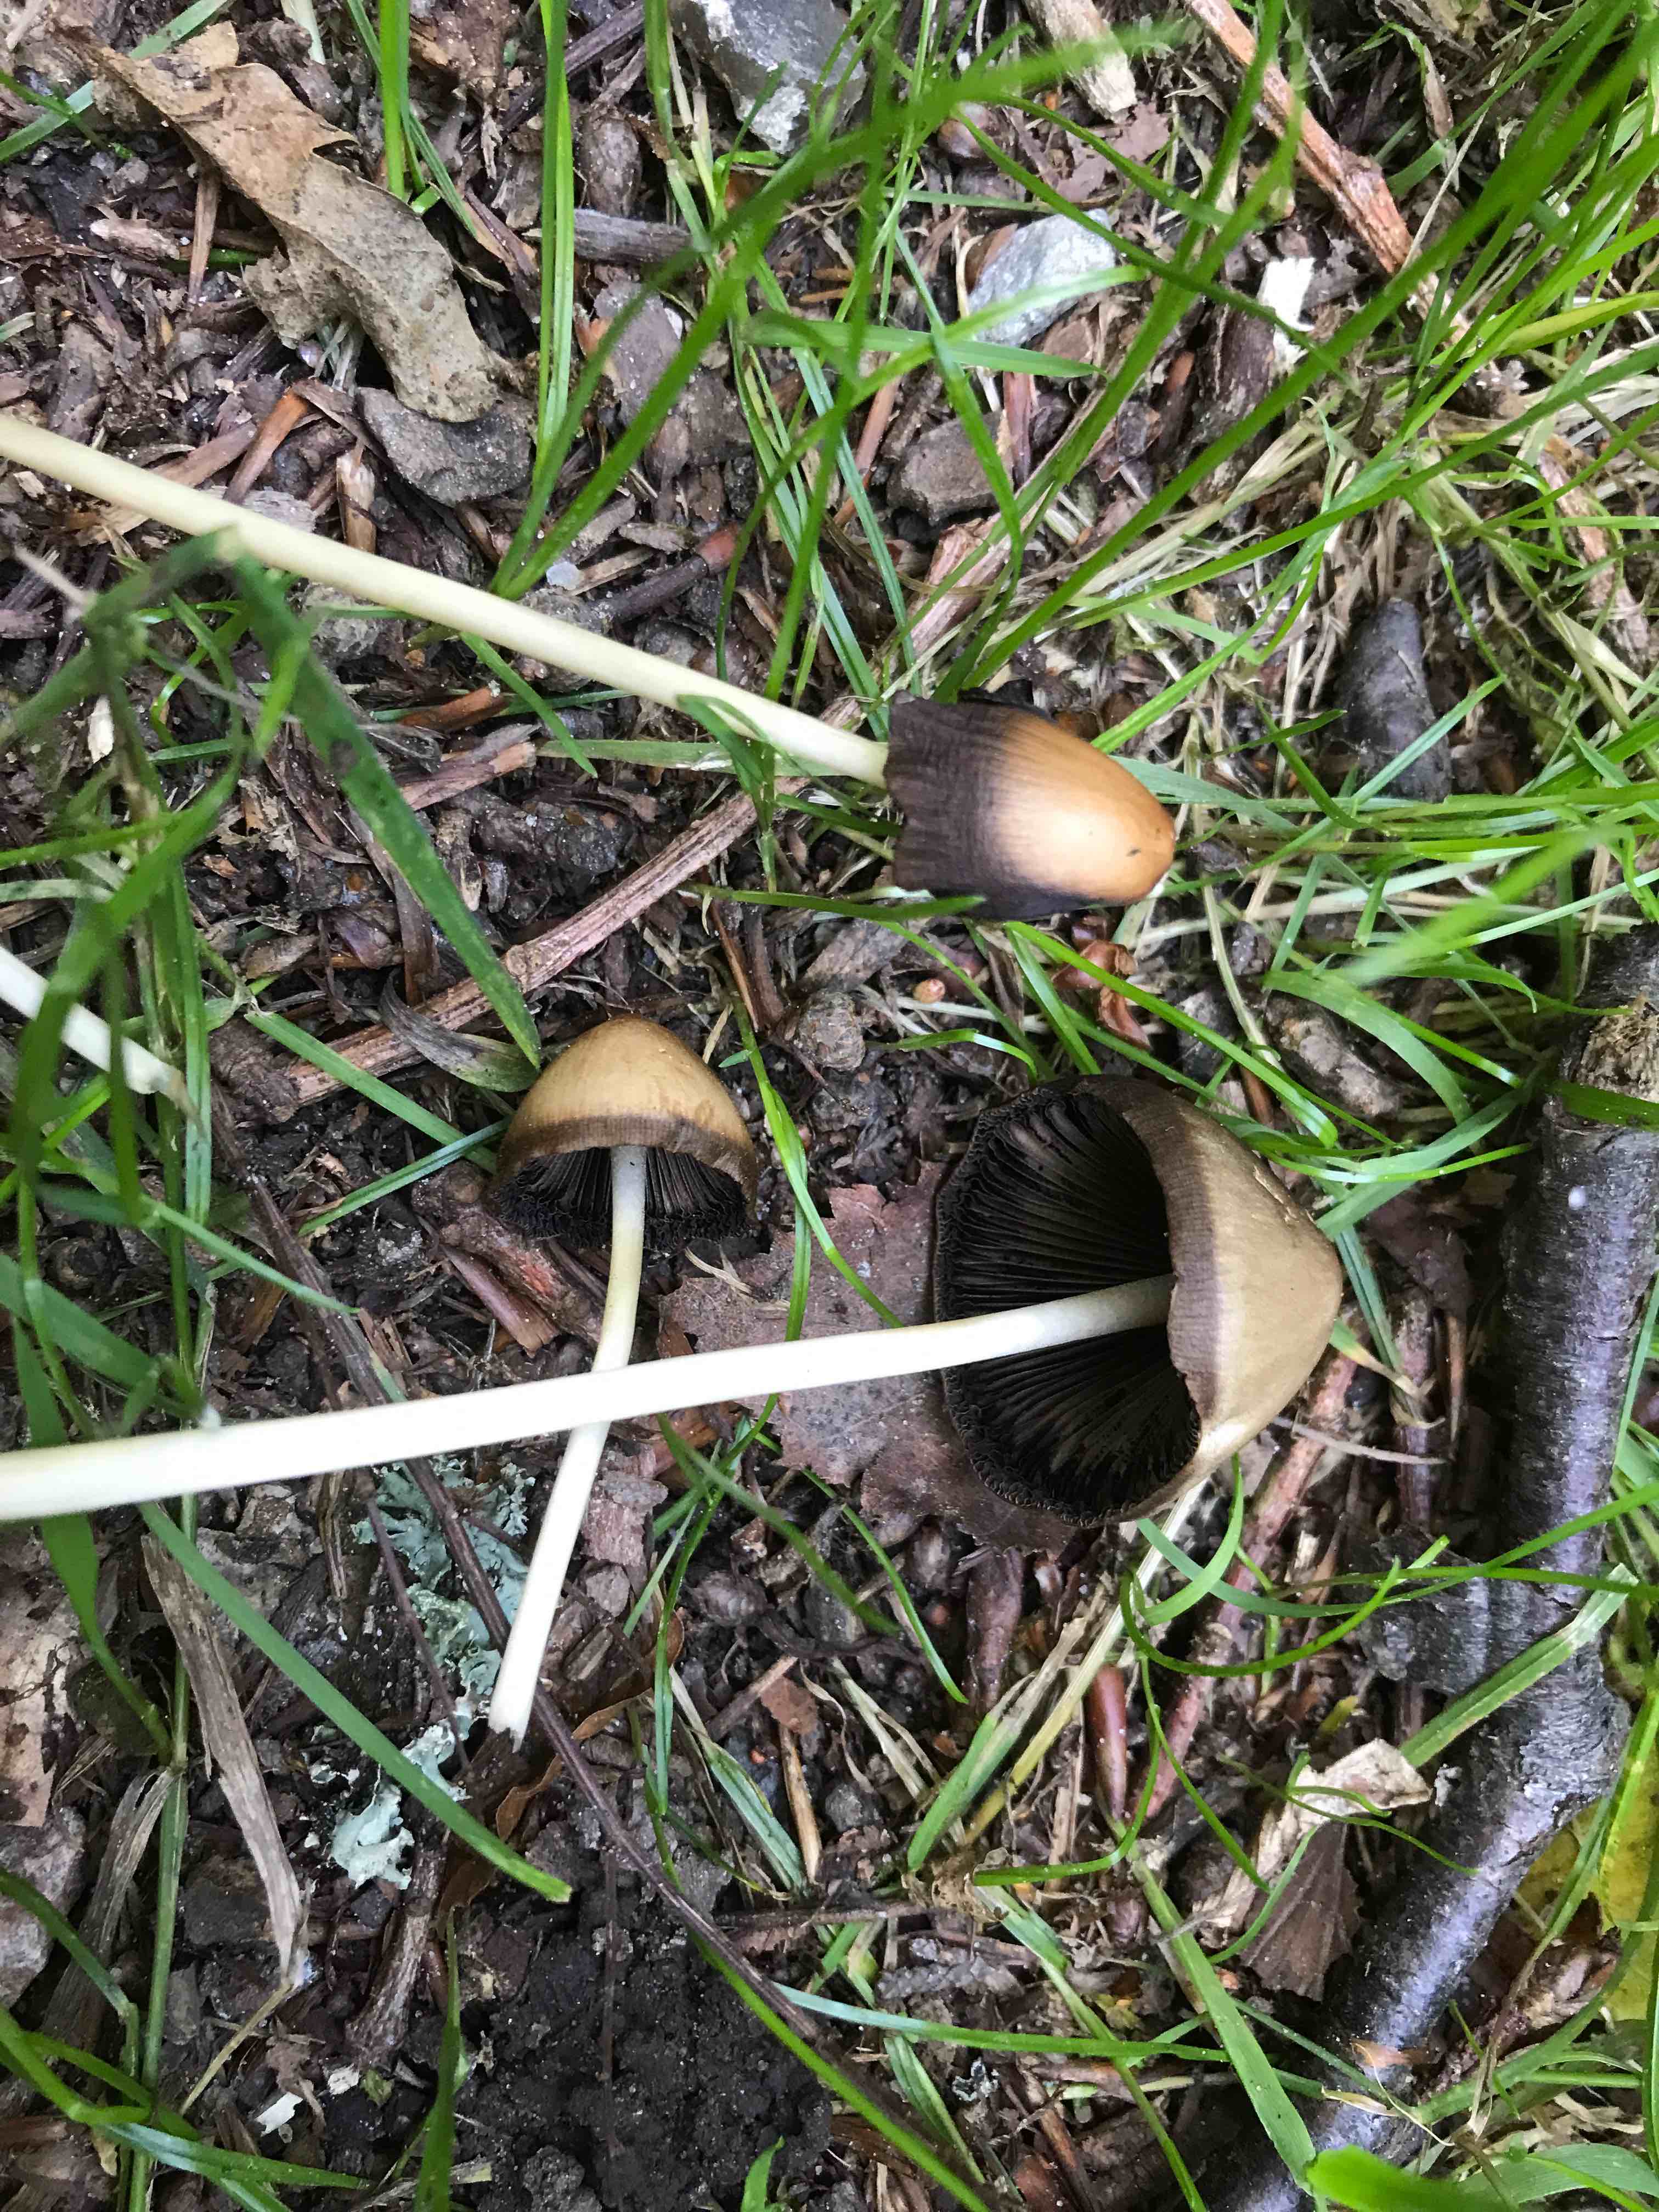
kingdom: Fungi
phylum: Basidiomycota
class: Agaricomycetes
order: Agaricales
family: Psathyrellaceae
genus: Parasola
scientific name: Parasola conopilea
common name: kegle-hjulhat
